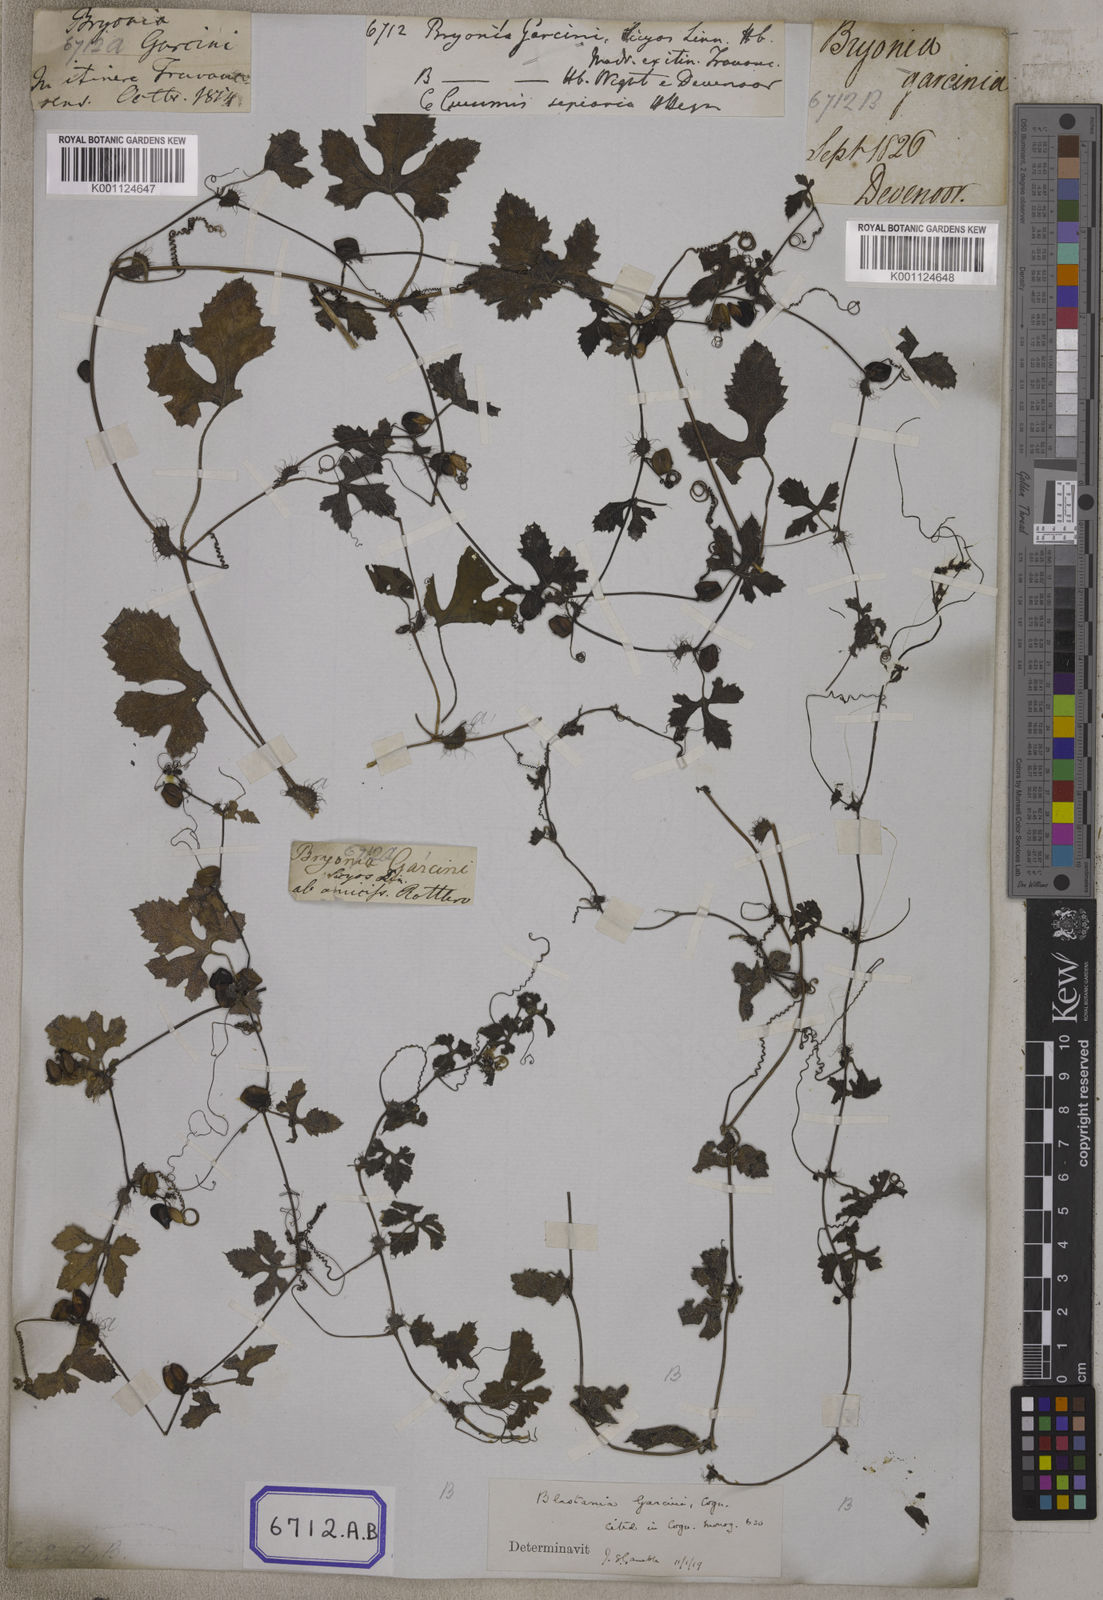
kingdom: Plantae
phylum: Tracheophyta
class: Magnoliopsida
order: Cucurbitales
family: Cucurbitaceae
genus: Blastania
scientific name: Blastania garcinii
